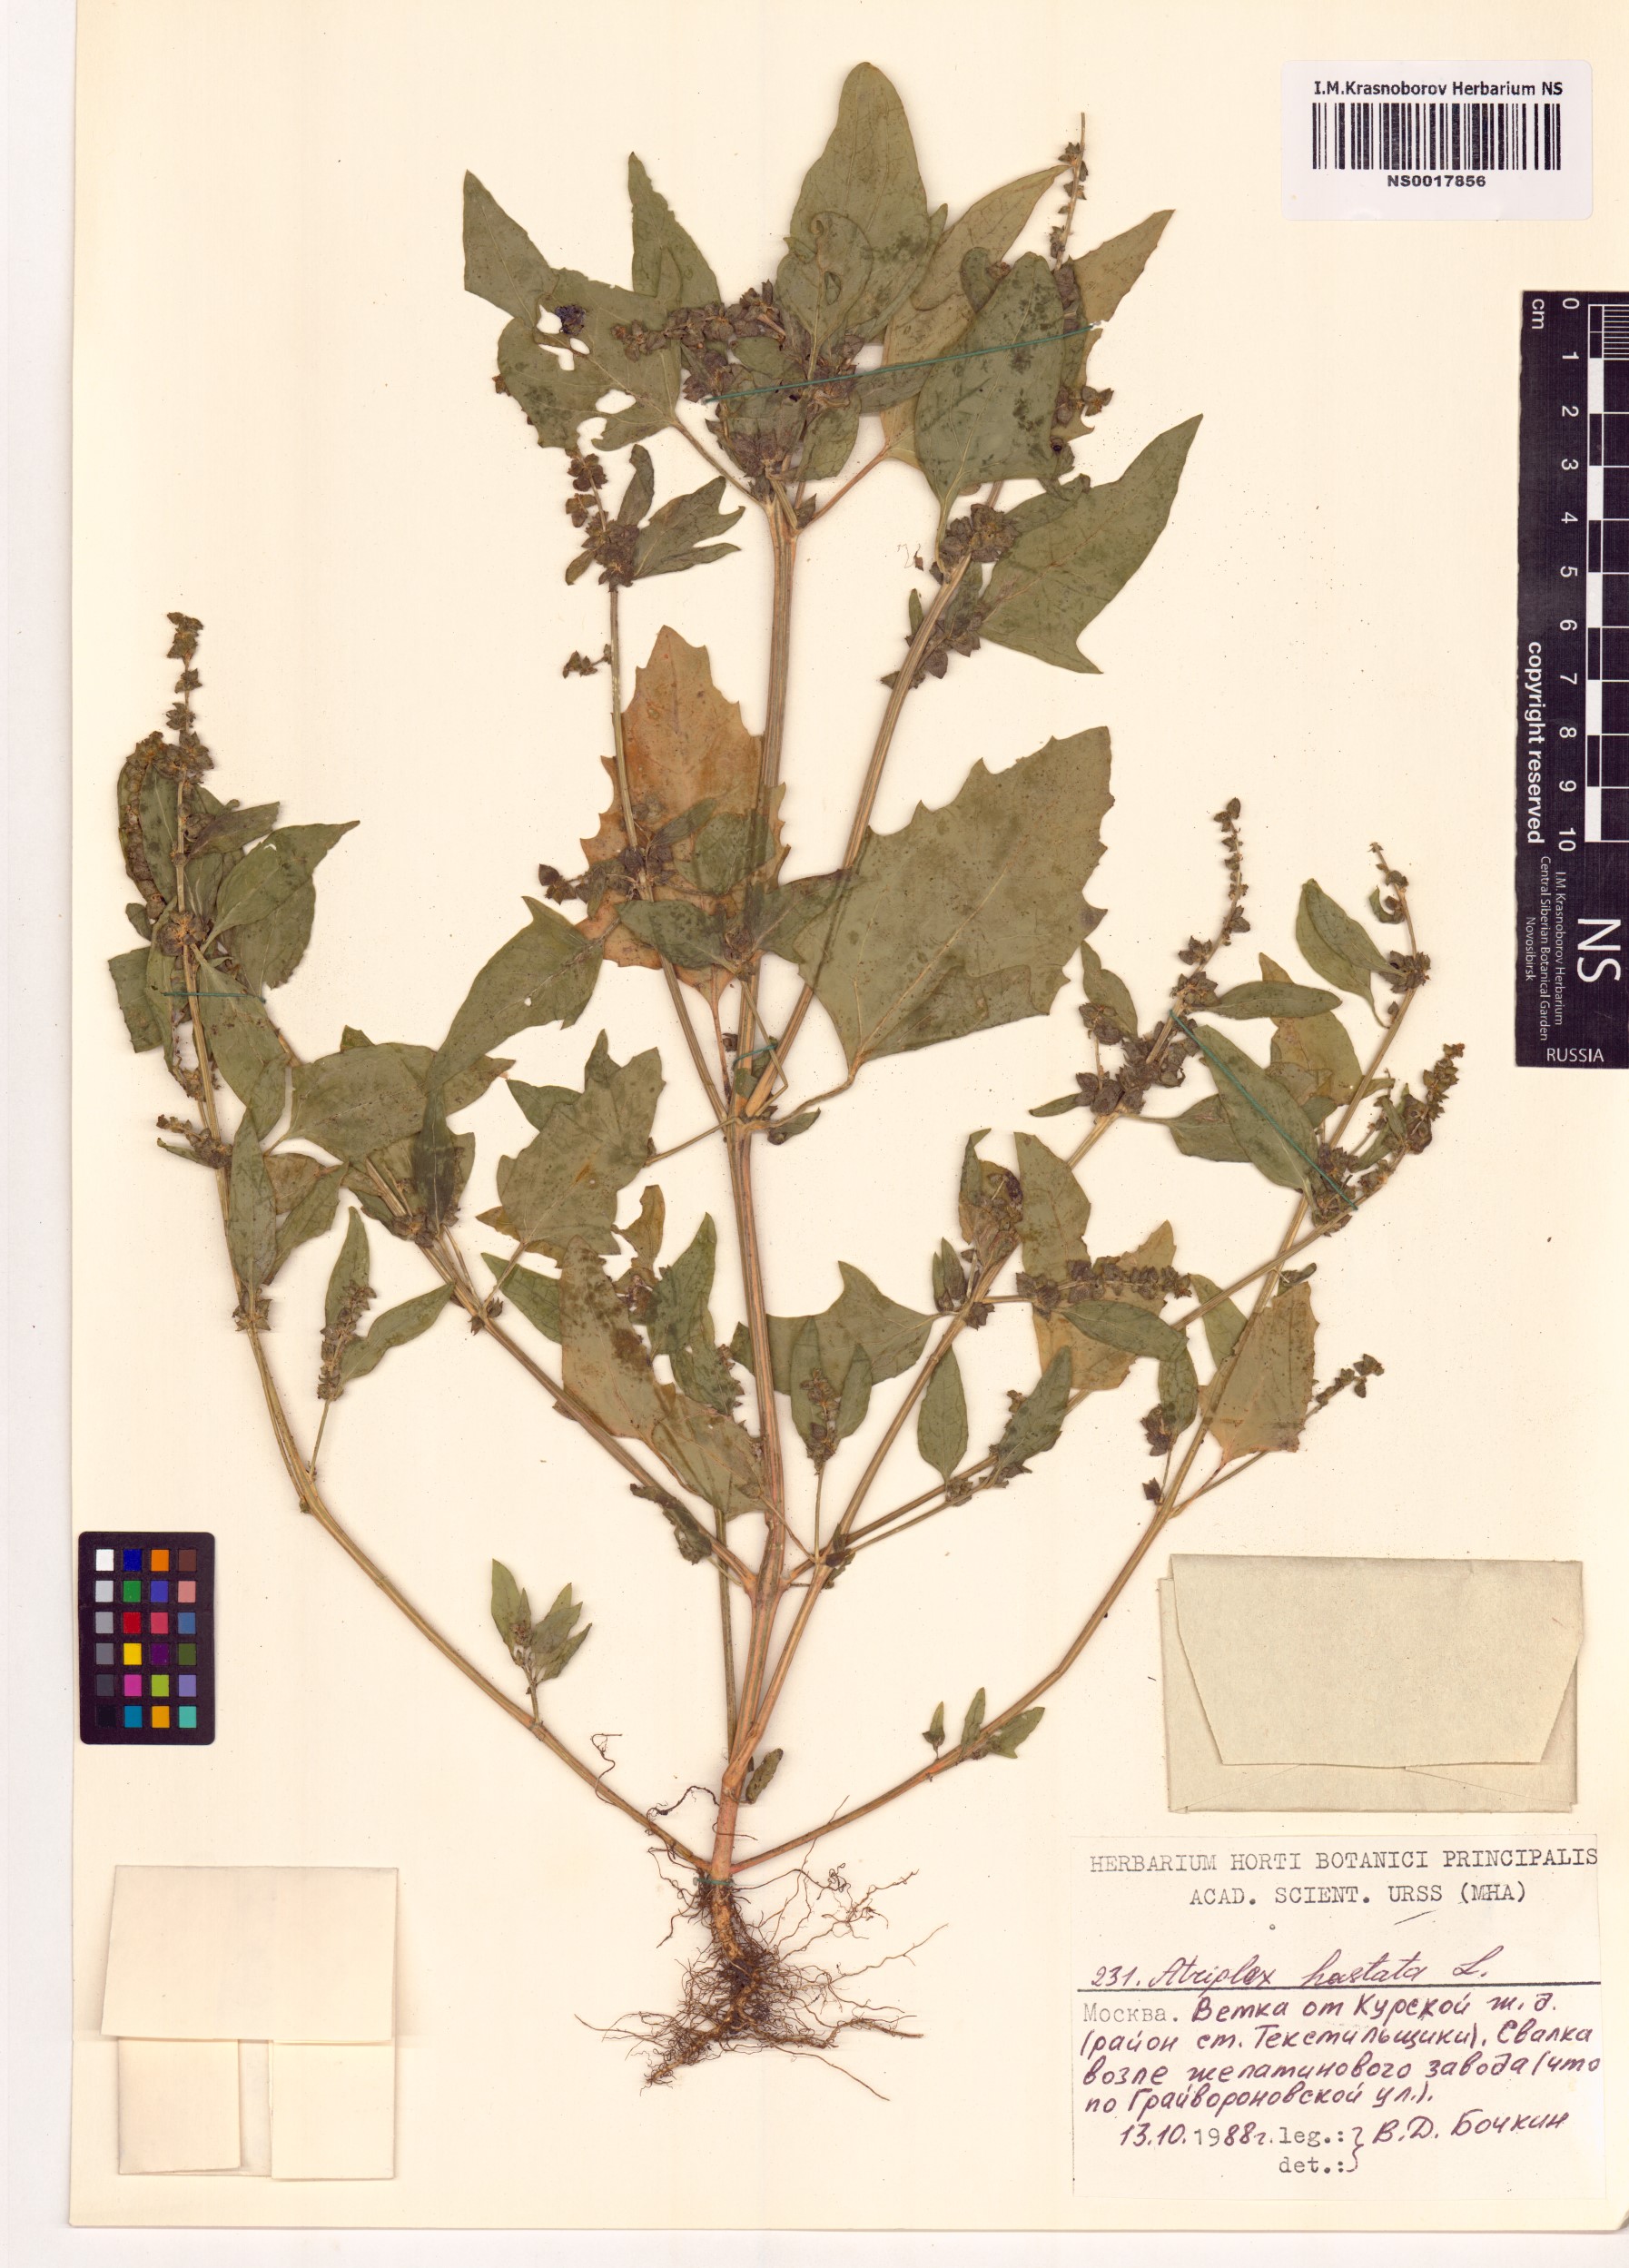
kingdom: Plantae
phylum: Tracheophyta
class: Magnoliopsida
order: Caryophyllales
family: Amaranthaceae
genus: Atriplex
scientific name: Atriplex calotheca
